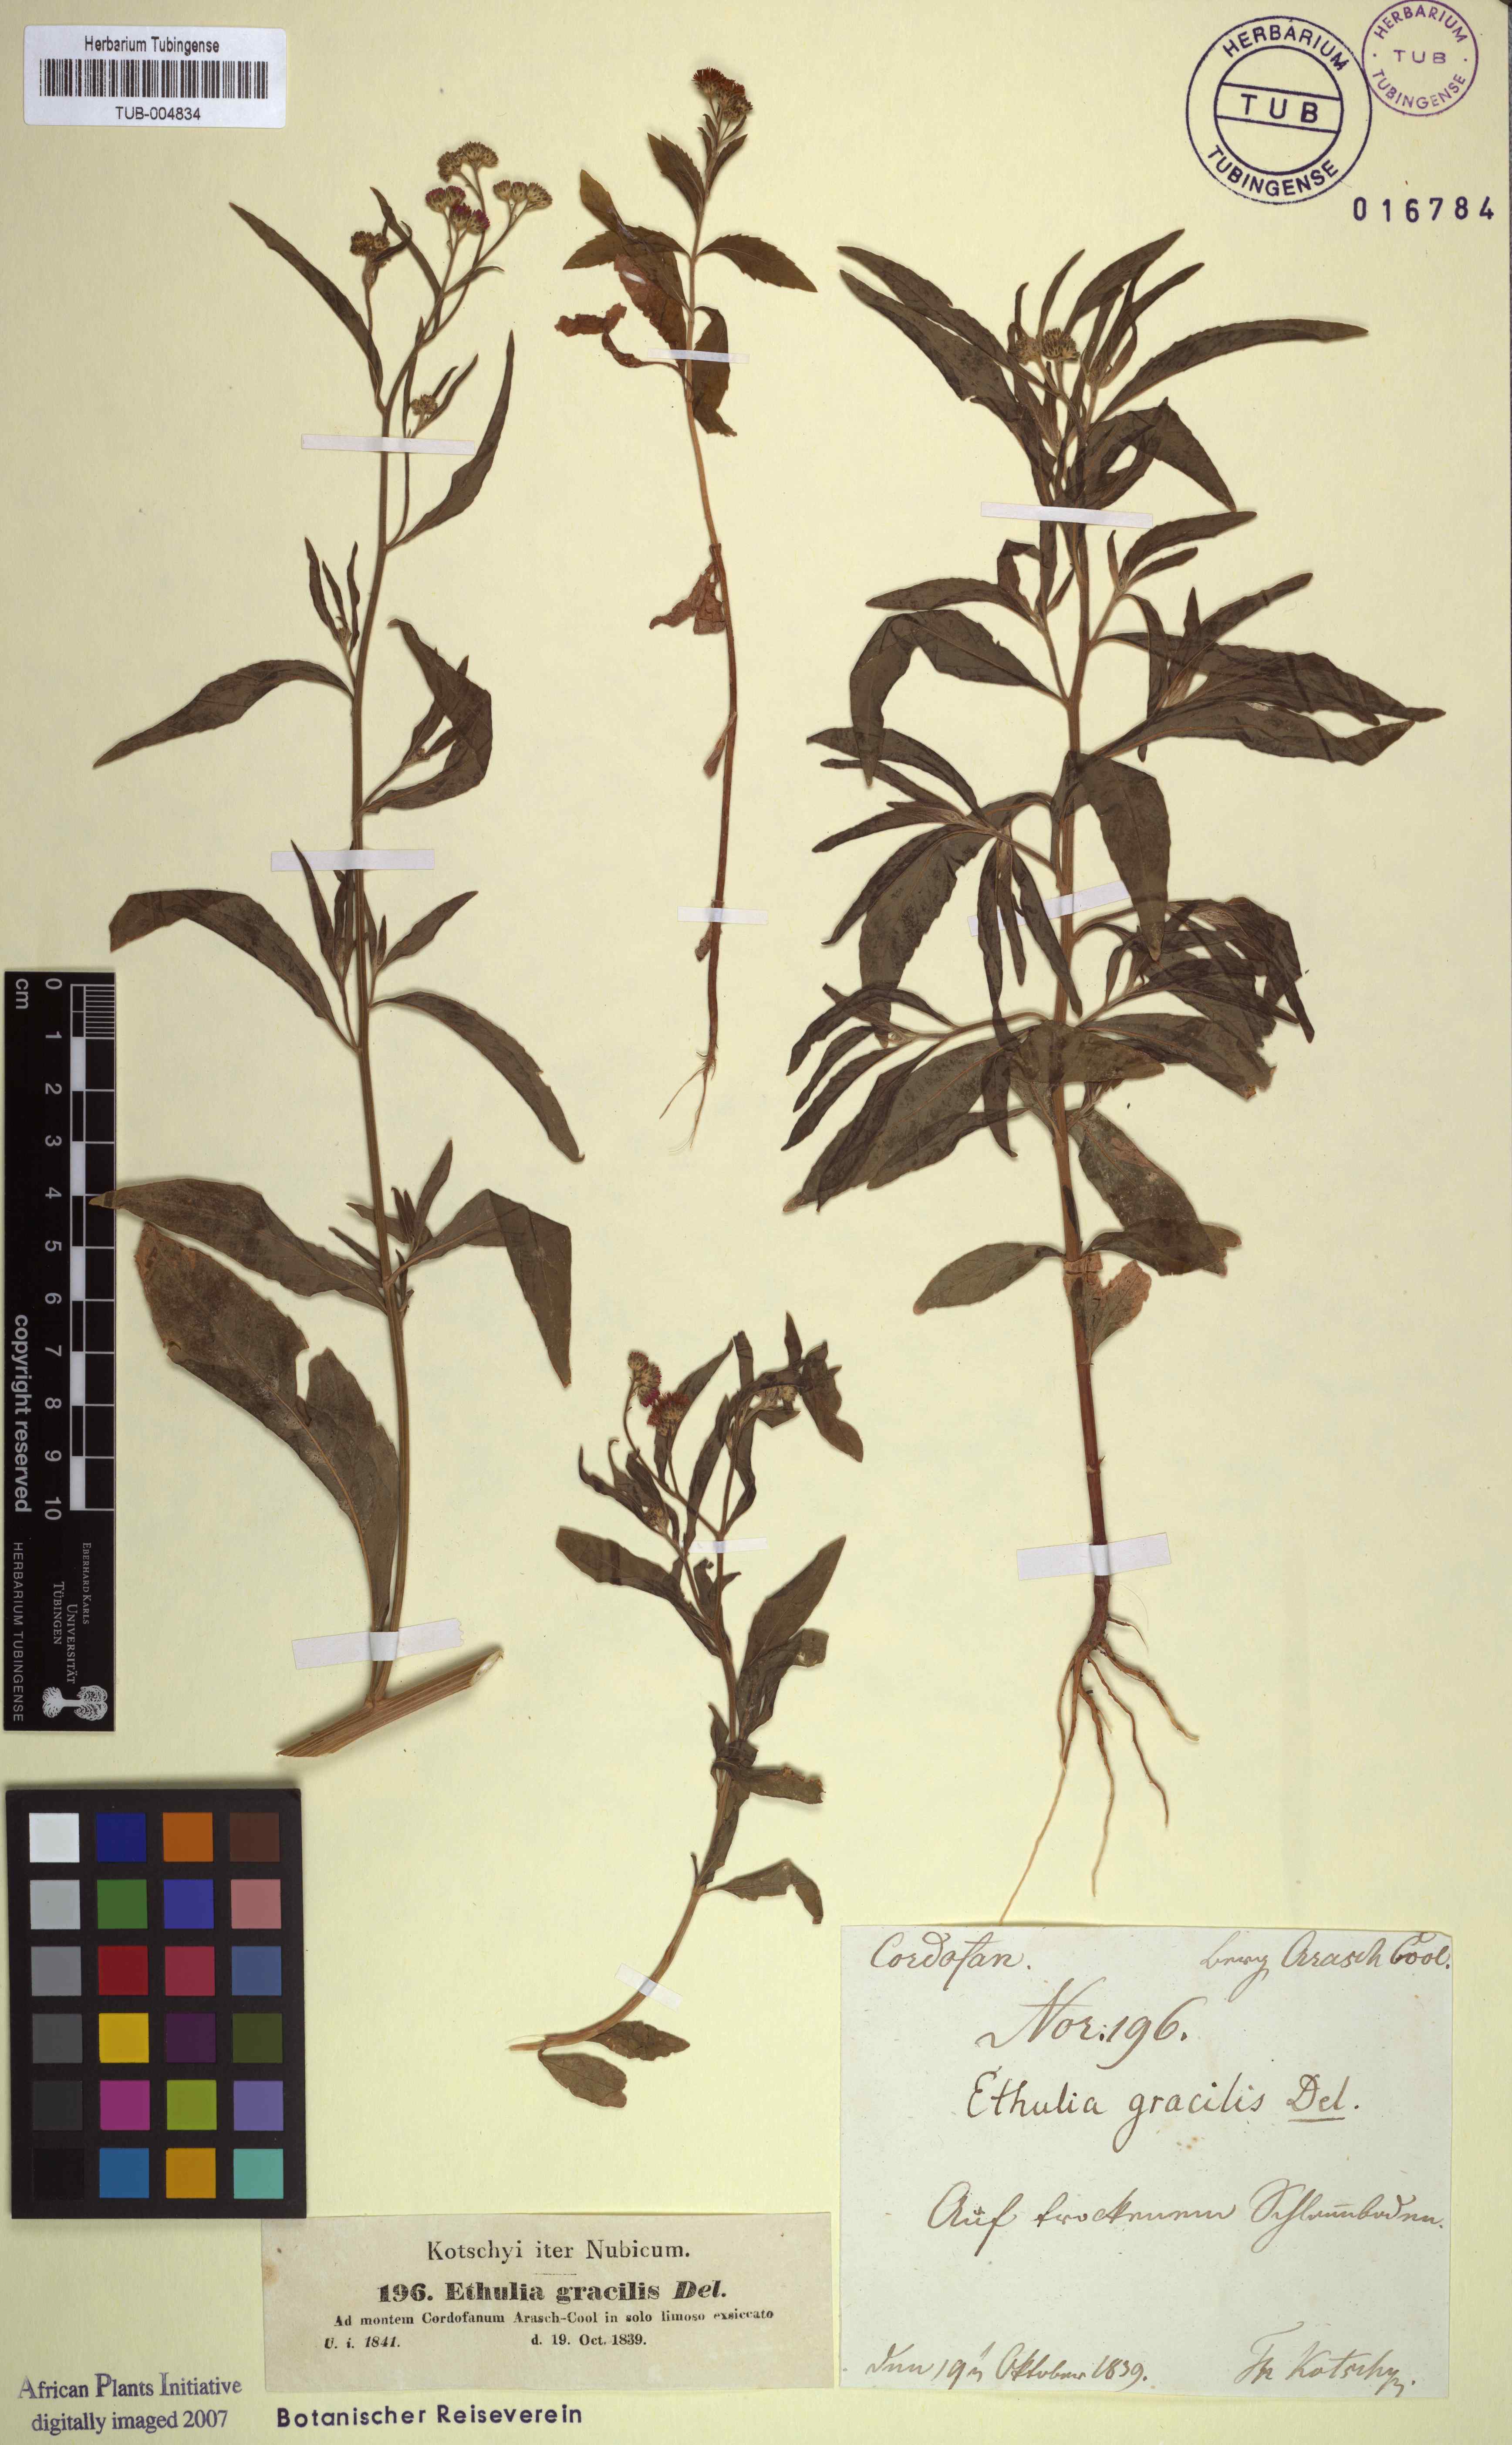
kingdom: Plantae
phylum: Tracheophyta
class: Magnoliopsida
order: Asterales
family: Asteraceae
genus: Ethulia
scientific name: Ethulia conyzoides
